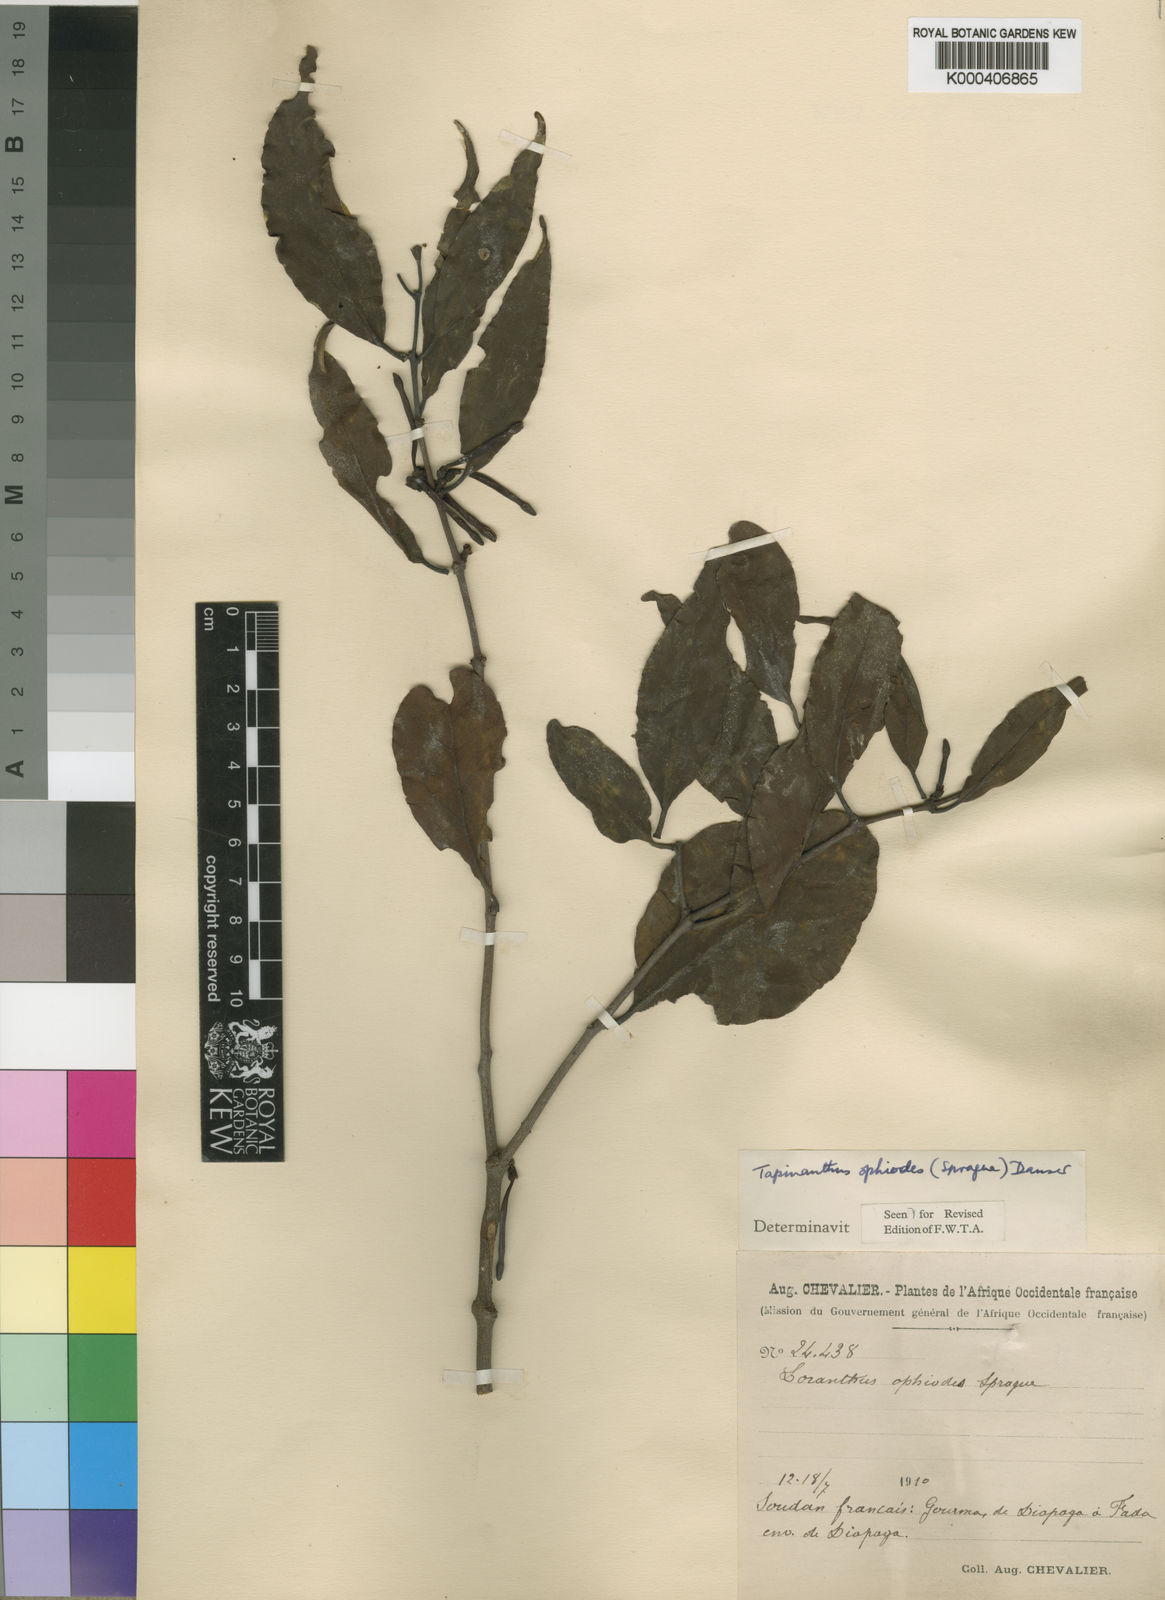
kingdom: Plantae
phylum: Tracheophyta
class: Magnoliopsida
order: Santalales
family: Loranthaceae
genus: Tapinanthus
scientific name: Tapinanthus ophiodes
